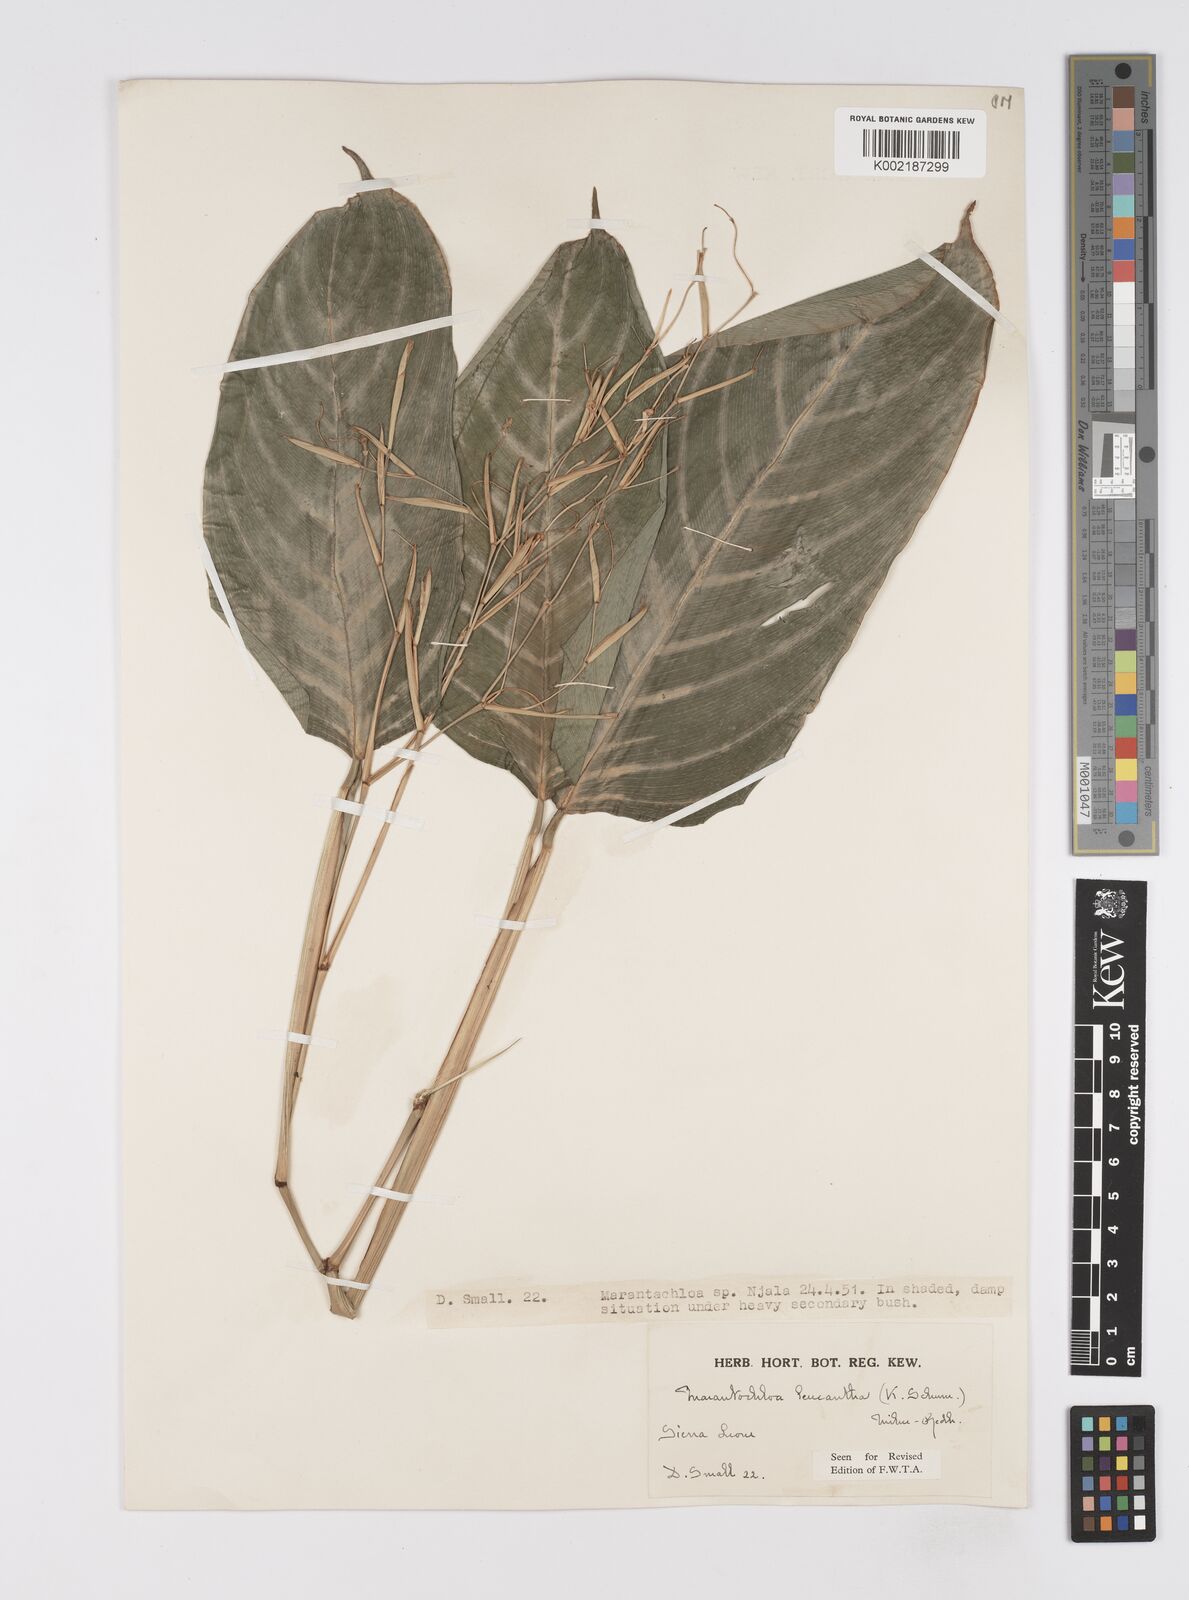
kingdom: Plantae
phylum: Tracheophyta
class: Liliopsida
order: Zingiberales
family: Marantaceae
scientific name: Marantaceae
